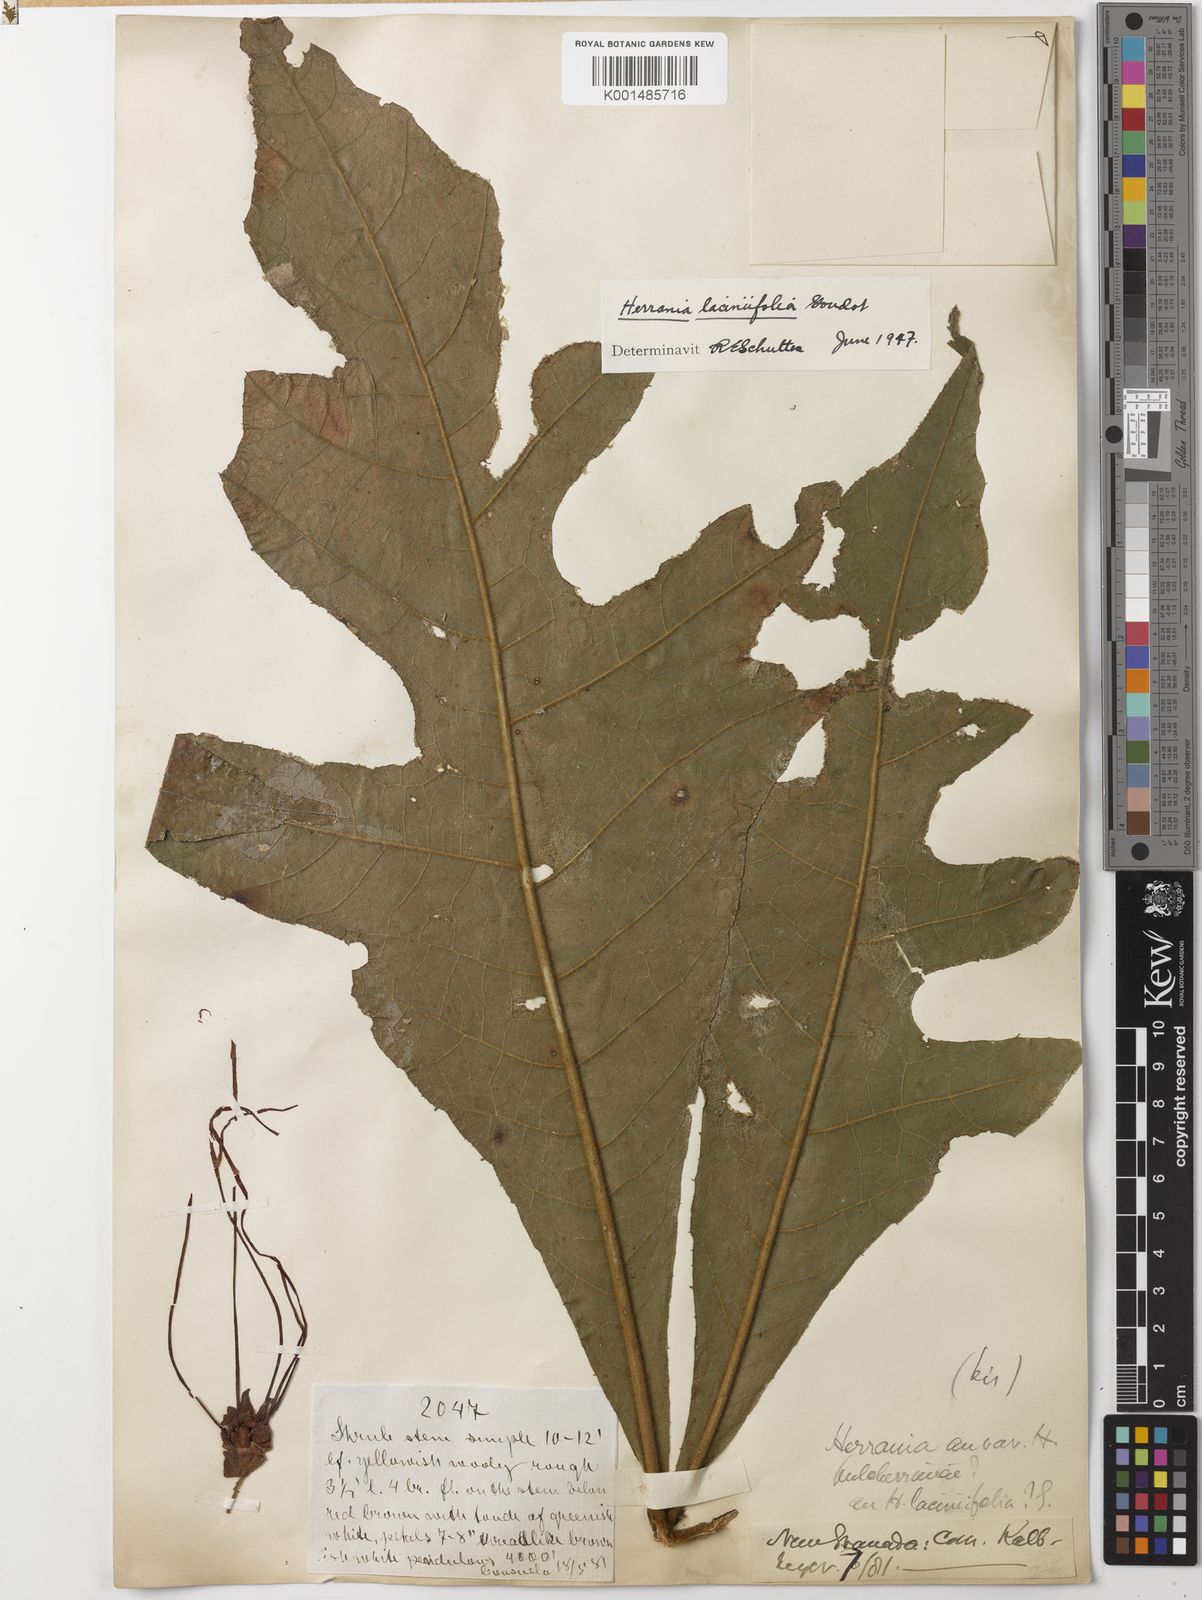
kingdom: Plantae
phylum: Tracheophyta
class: Magnoliopsida
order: Malvales
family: Malvaceae
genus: Herrania
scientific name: Herrania laciniifolia
